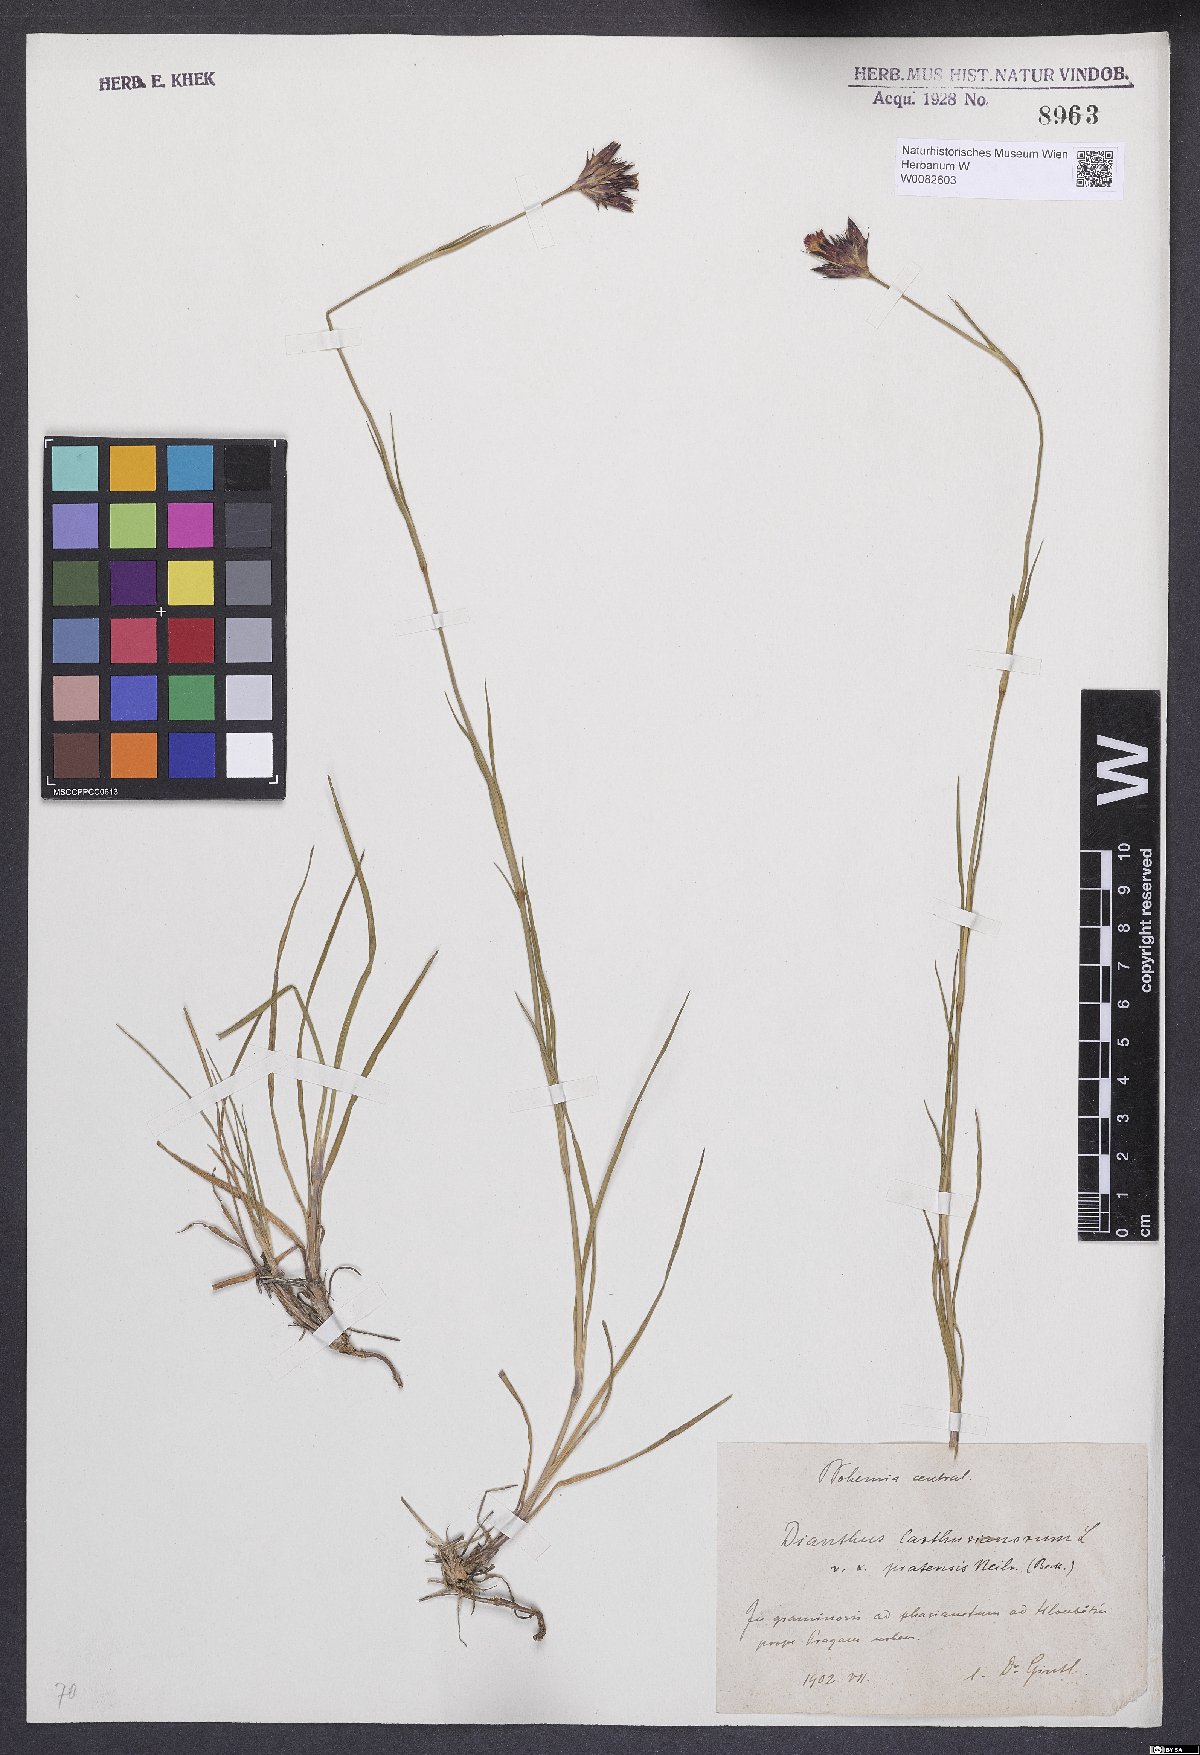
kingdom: Plantae
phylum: Tracheophyta
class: Magnoliopsida
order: Caryophyllales
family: Caryophyllaceae
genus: Dianthus
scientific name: Dianthus carthusianorum
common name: Carthusian pink
